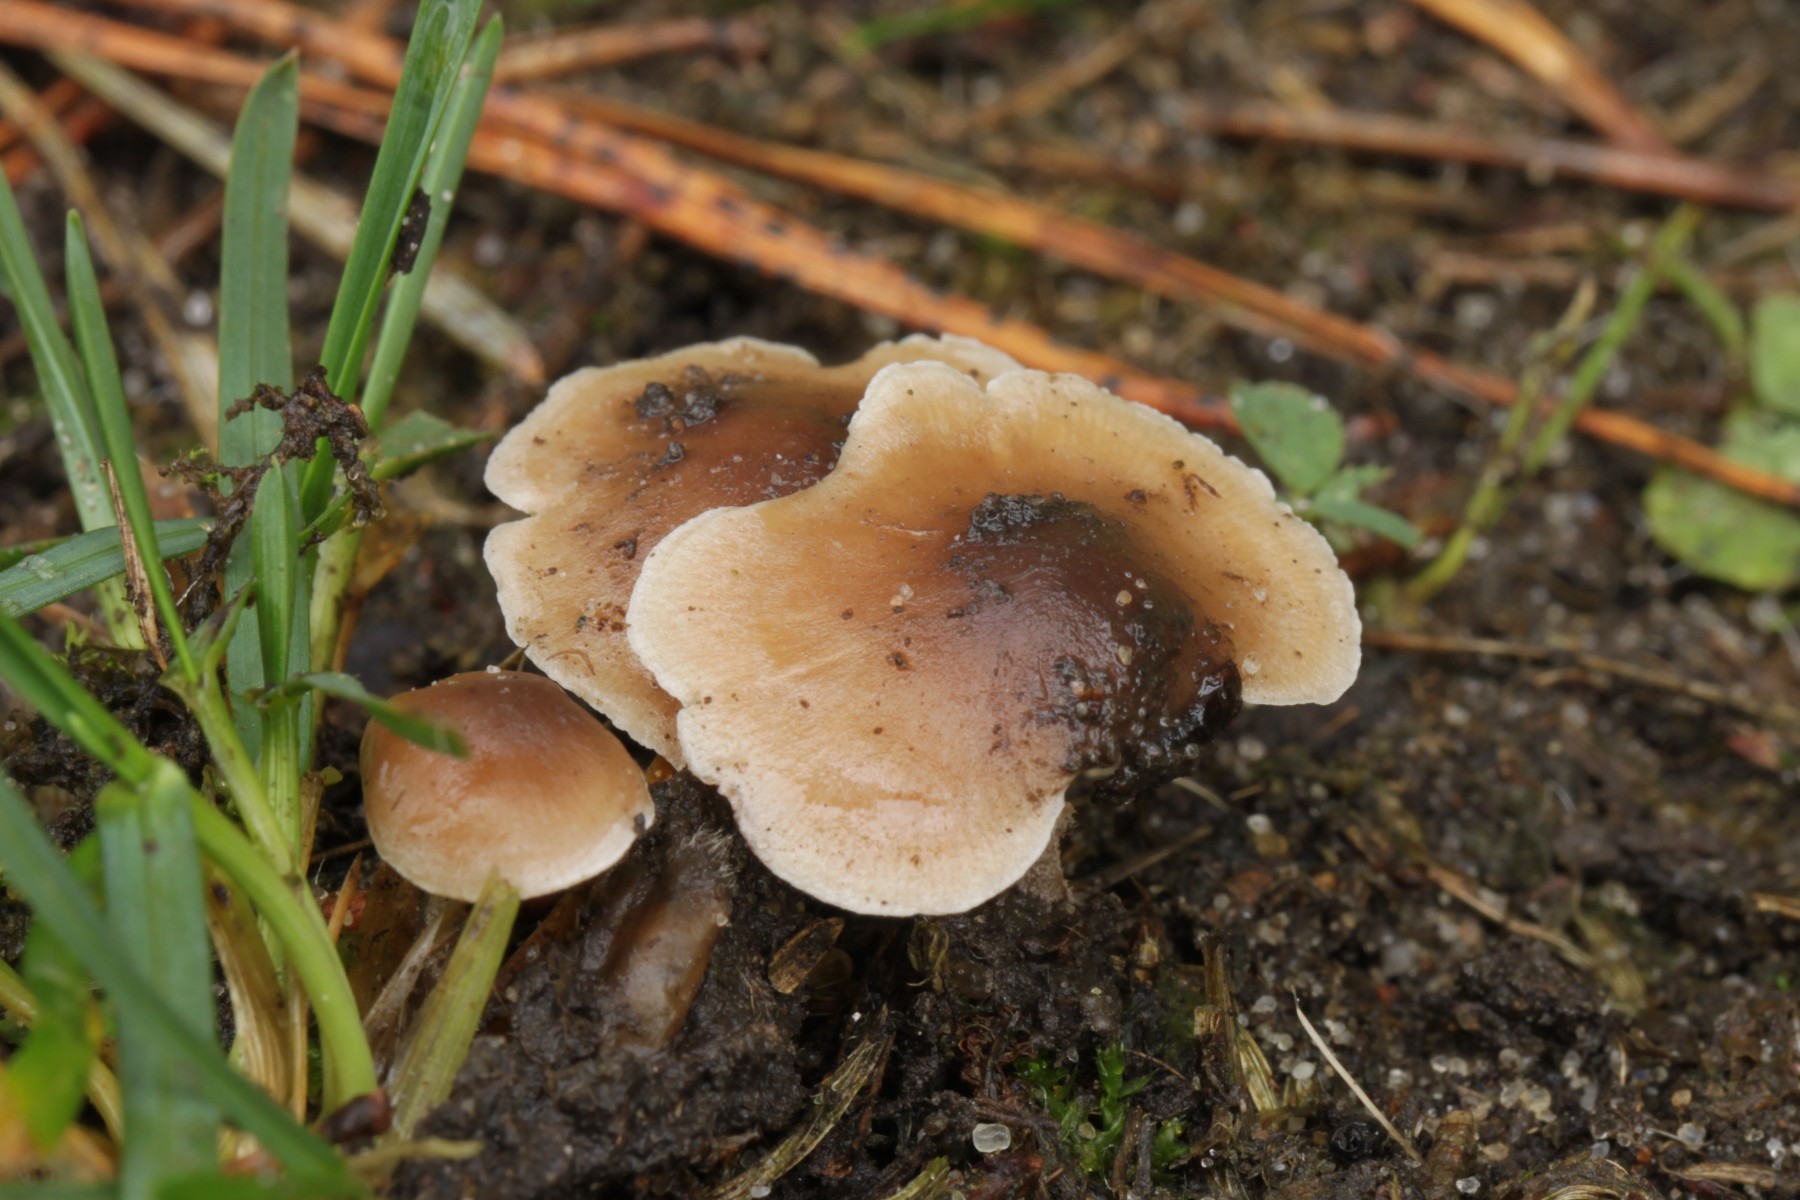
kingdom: Fungi
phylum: Basidiomycota
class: Agaricomycetes
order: Agaricales
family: Marasmiaceae
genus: Baeospora
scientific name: Baeospora myosura
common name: koglebruskhat
